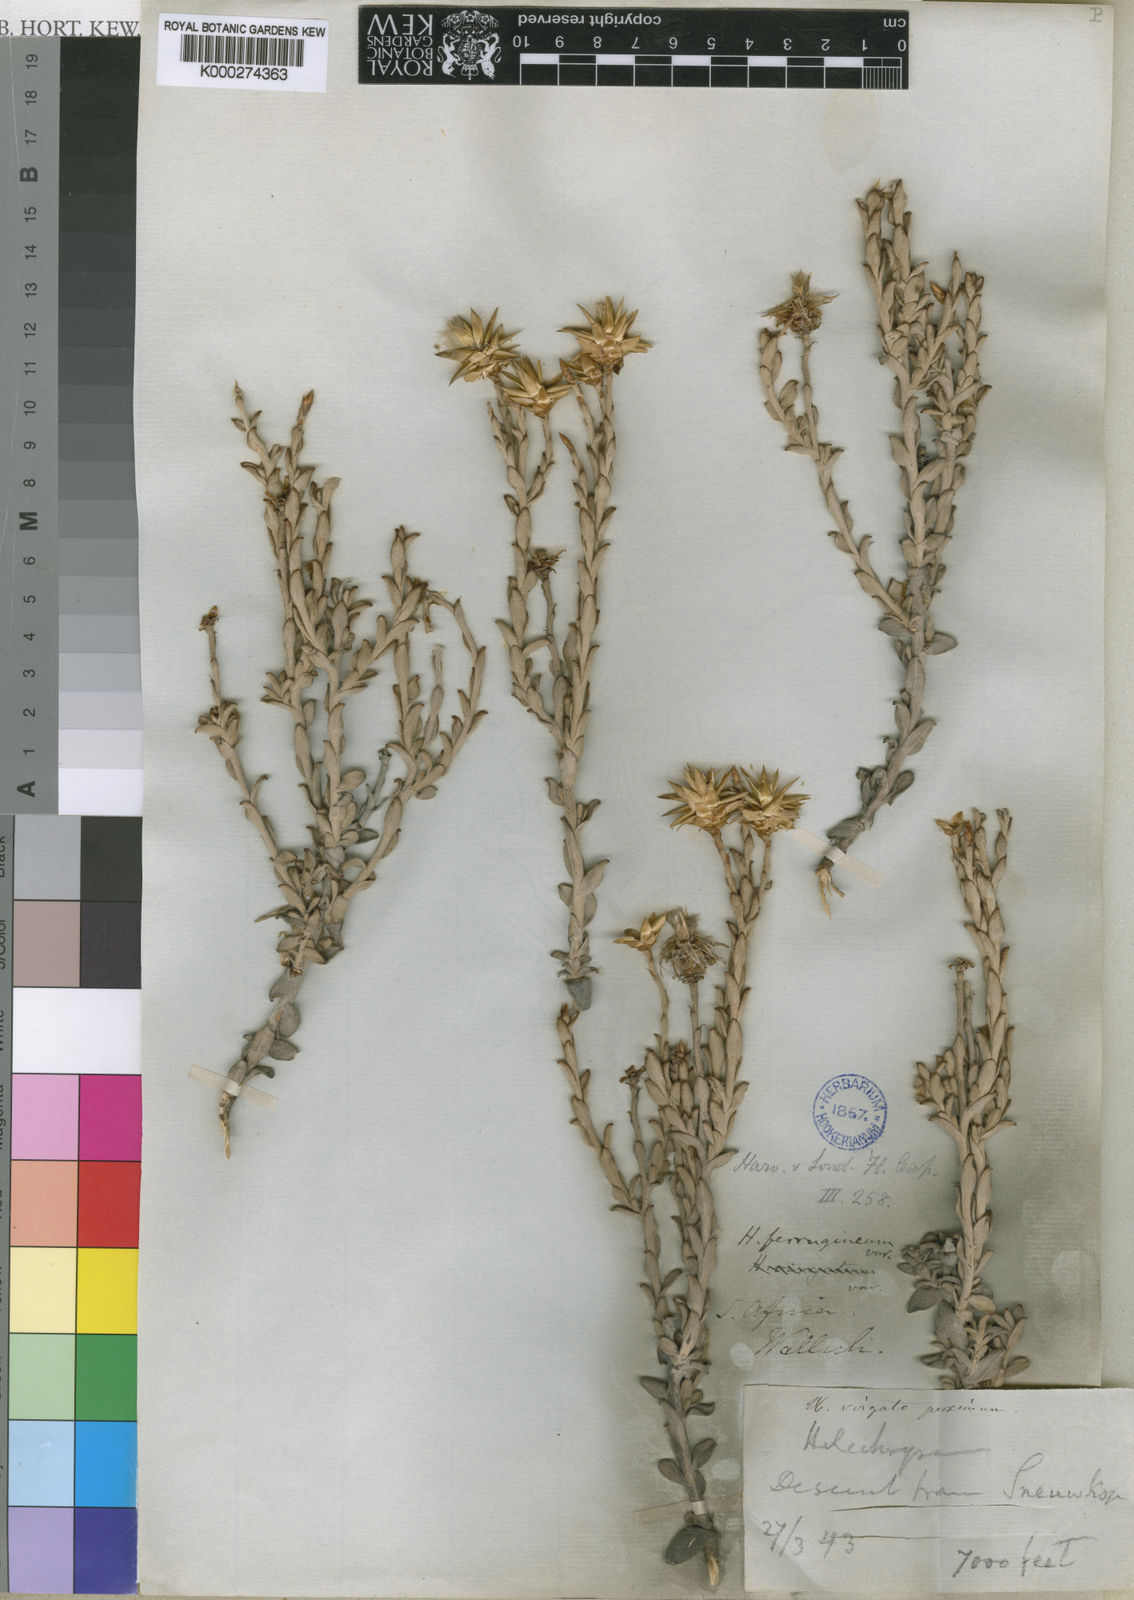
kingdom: Plantae
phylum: Tracheophyta
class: Magnoliopsida
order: Asterales
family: Asteraceae
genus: Syncarpha
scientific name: Syncarpha ferruginea
